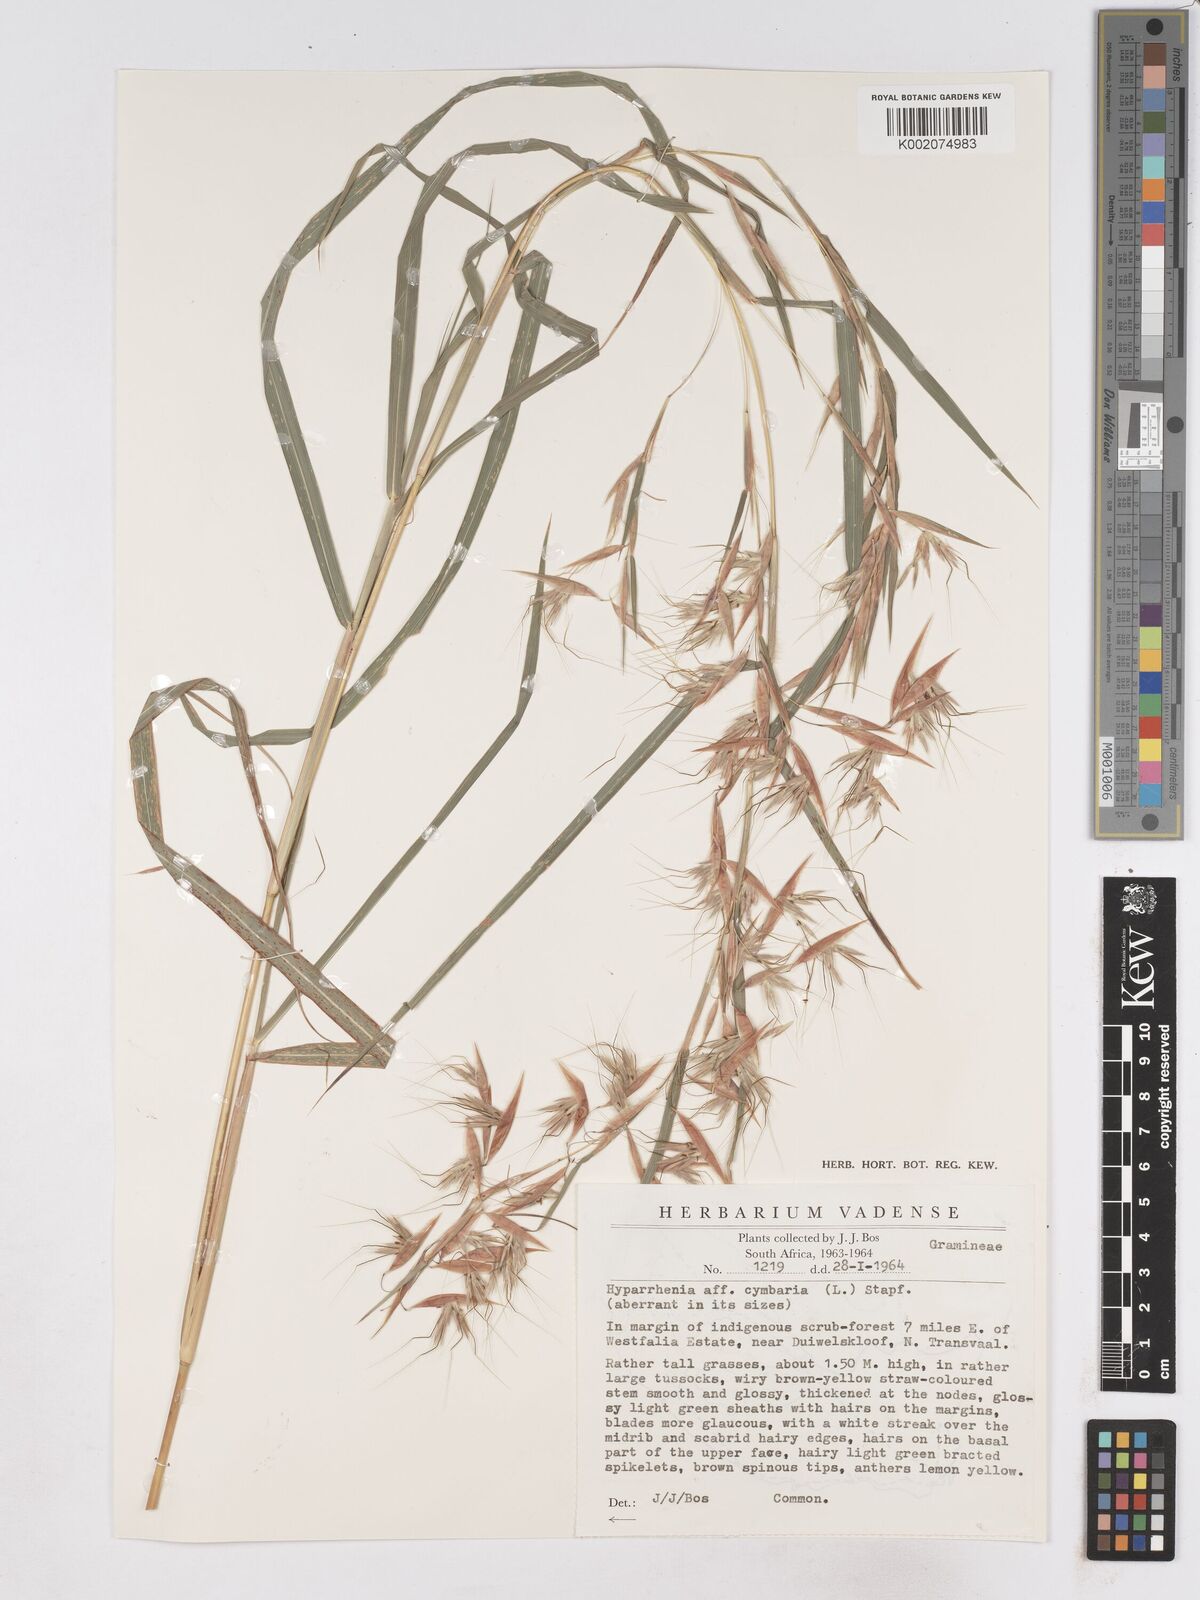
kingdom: Plantae
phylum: Tracheophyta
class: Liliopsida
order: Poales
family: Poaceae
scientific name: Poaceae
